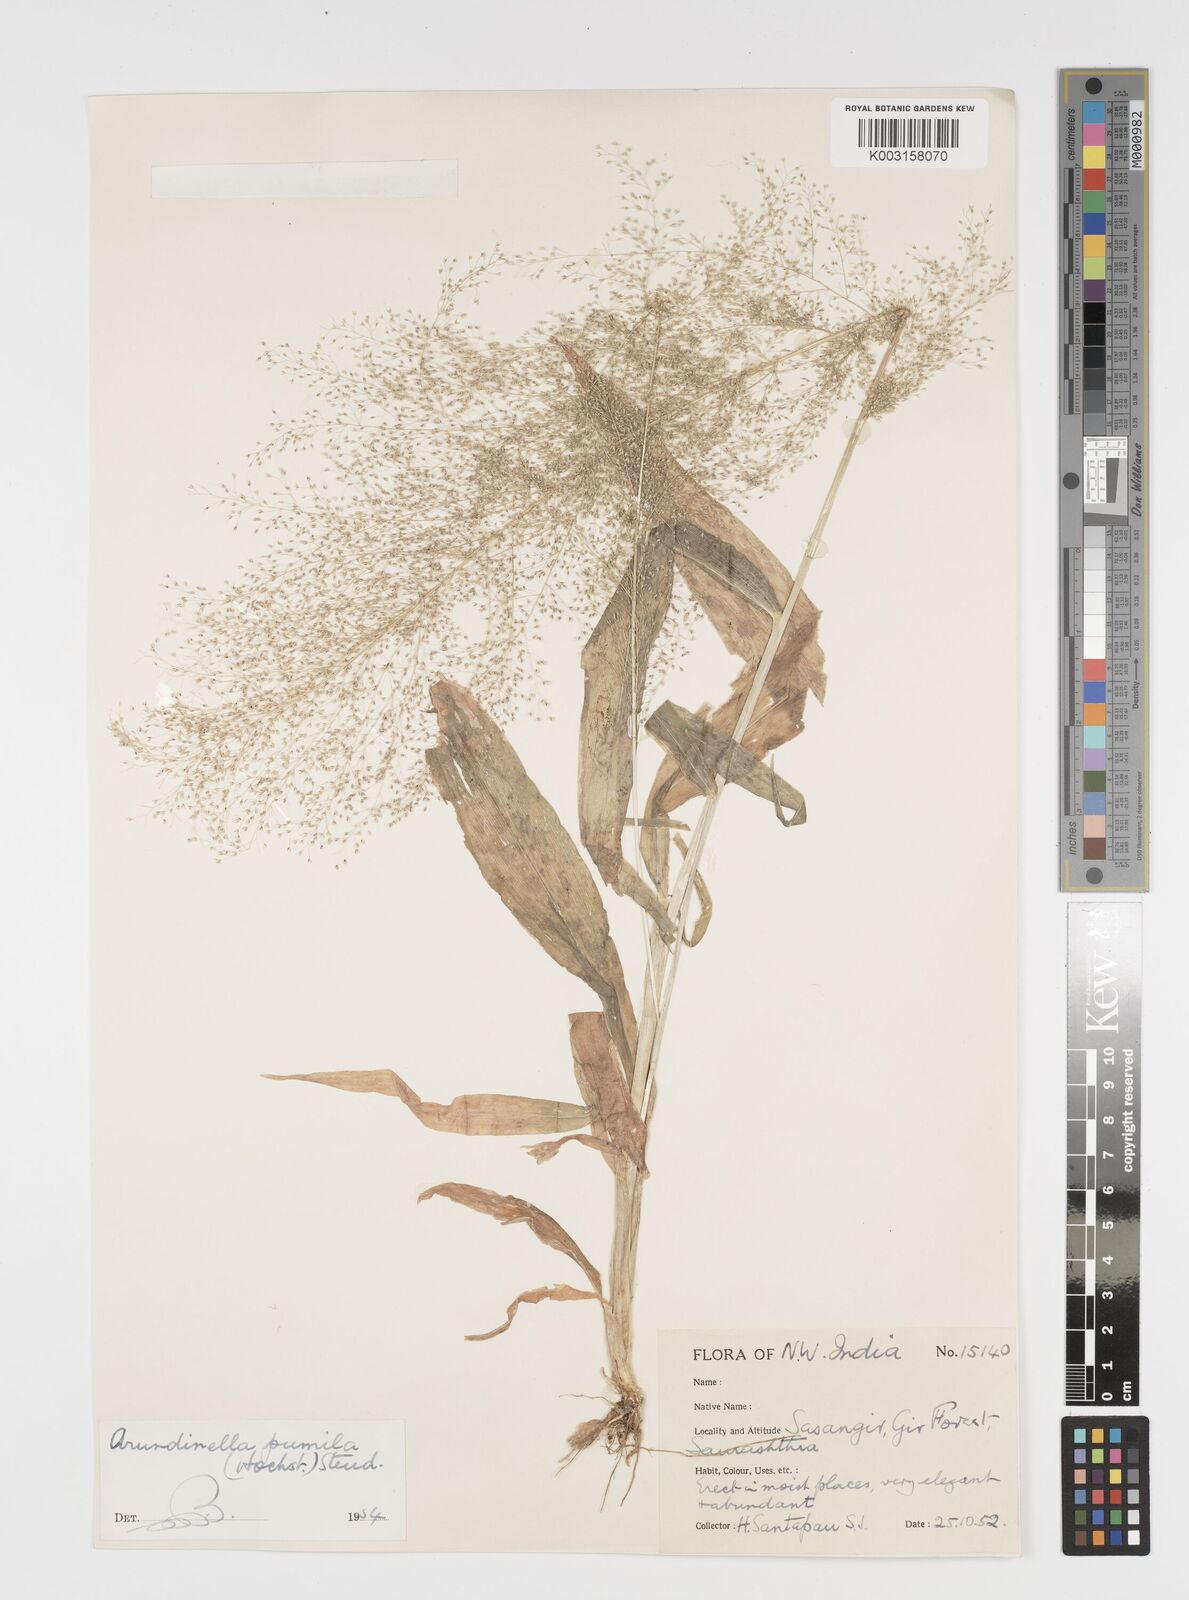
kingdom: Plantae
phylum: Tracheophyta
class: Liliopsida
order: Poales
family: Poaceae
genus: Arundinella
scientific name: Arundinella pumila
